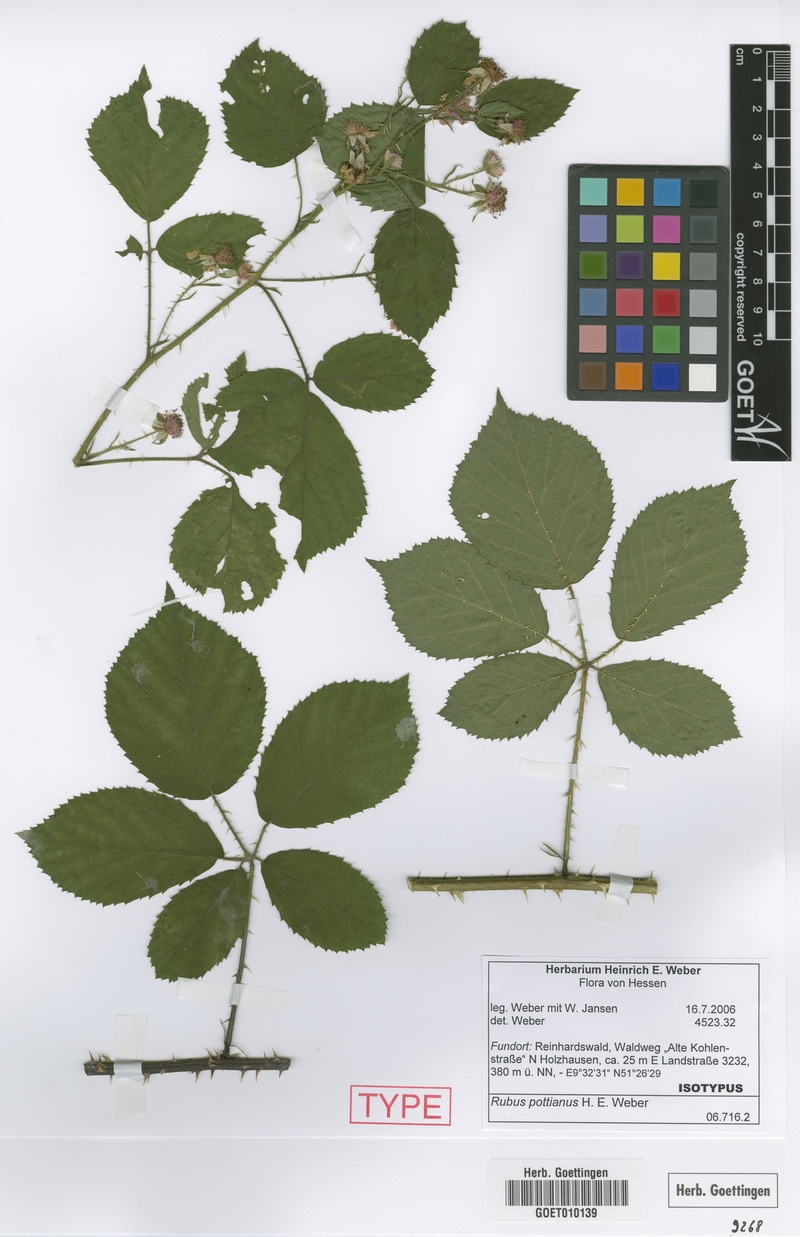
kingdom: Plantae
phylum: Tracheophyta
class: Magnoliopsida
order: Rosales
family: Rosaceae
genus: Rubus
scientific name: Rubus pottianus
